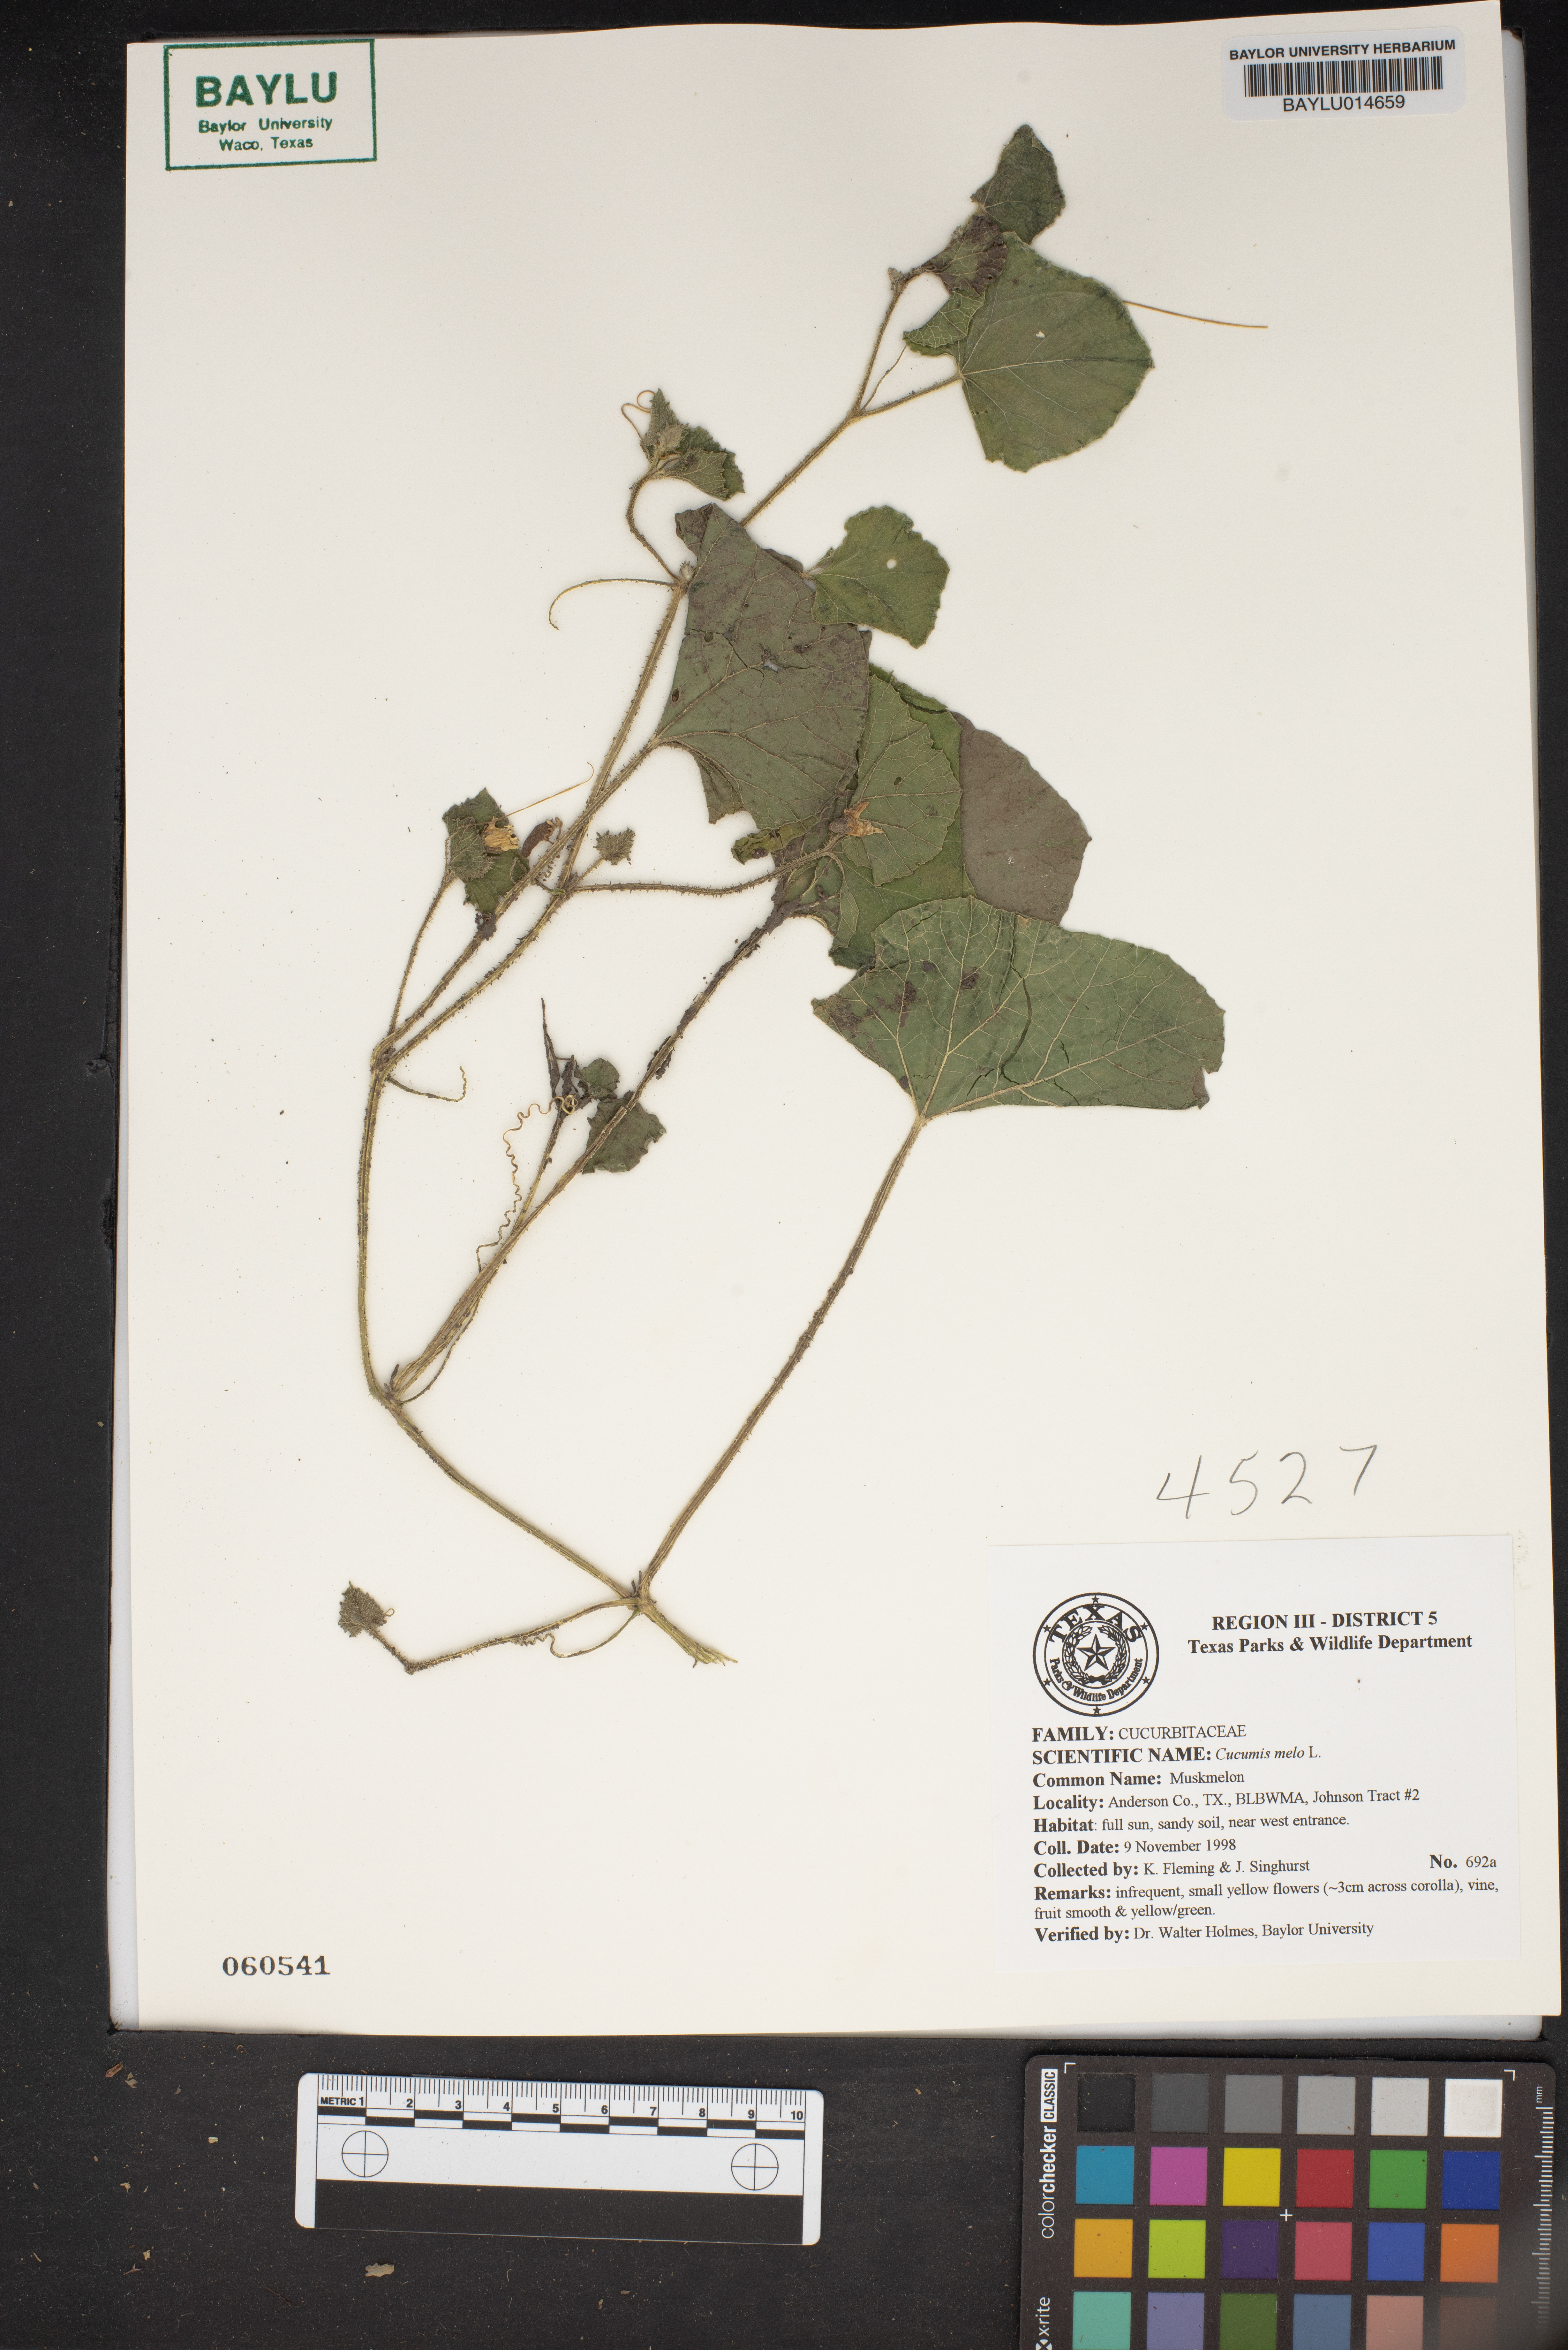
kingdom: Plantae
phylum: Tracheophyta
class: Magnoliopsida
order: Cucurbitales
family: Cucurbitaceae
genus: Cucumis
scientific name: Cucumis melo
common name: Melon
